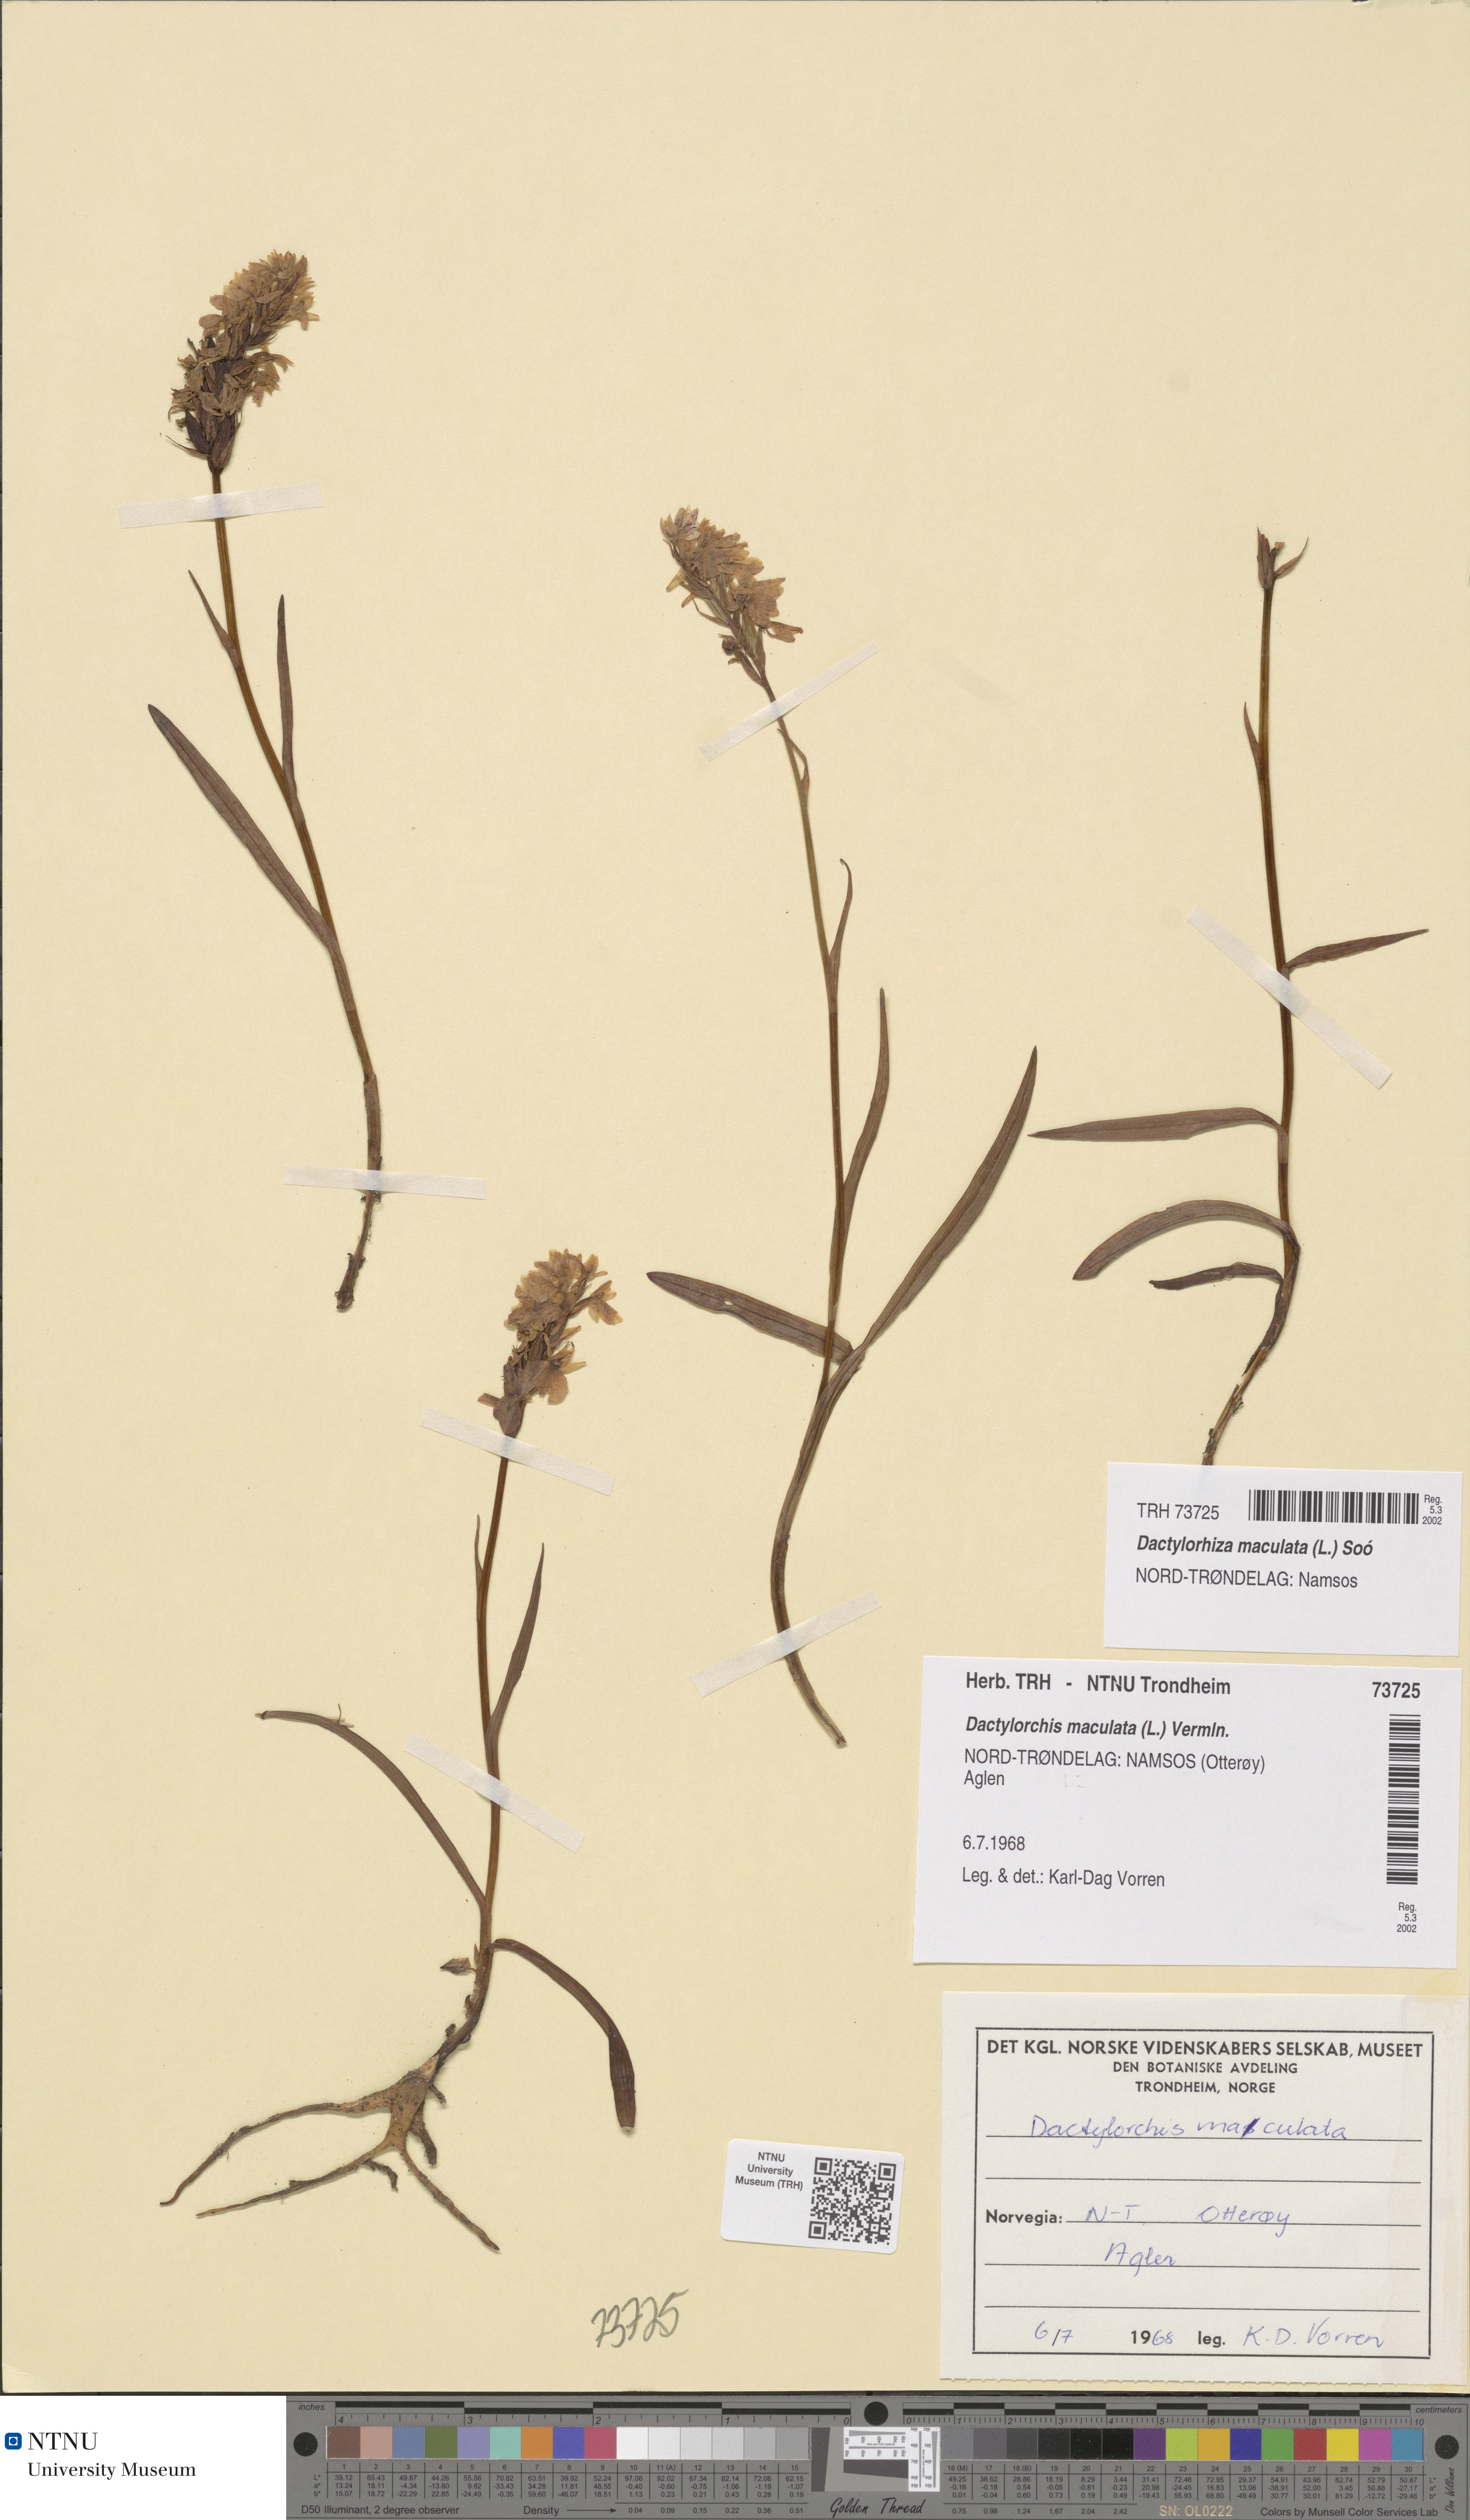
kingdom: Plantae
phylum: Tracheophyta
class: Liliopsida
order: Asparagales
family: Orchidaceae
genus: Dactylorhiza
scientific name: Dactylorhiza maculata
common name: Heath spotted-orchid
